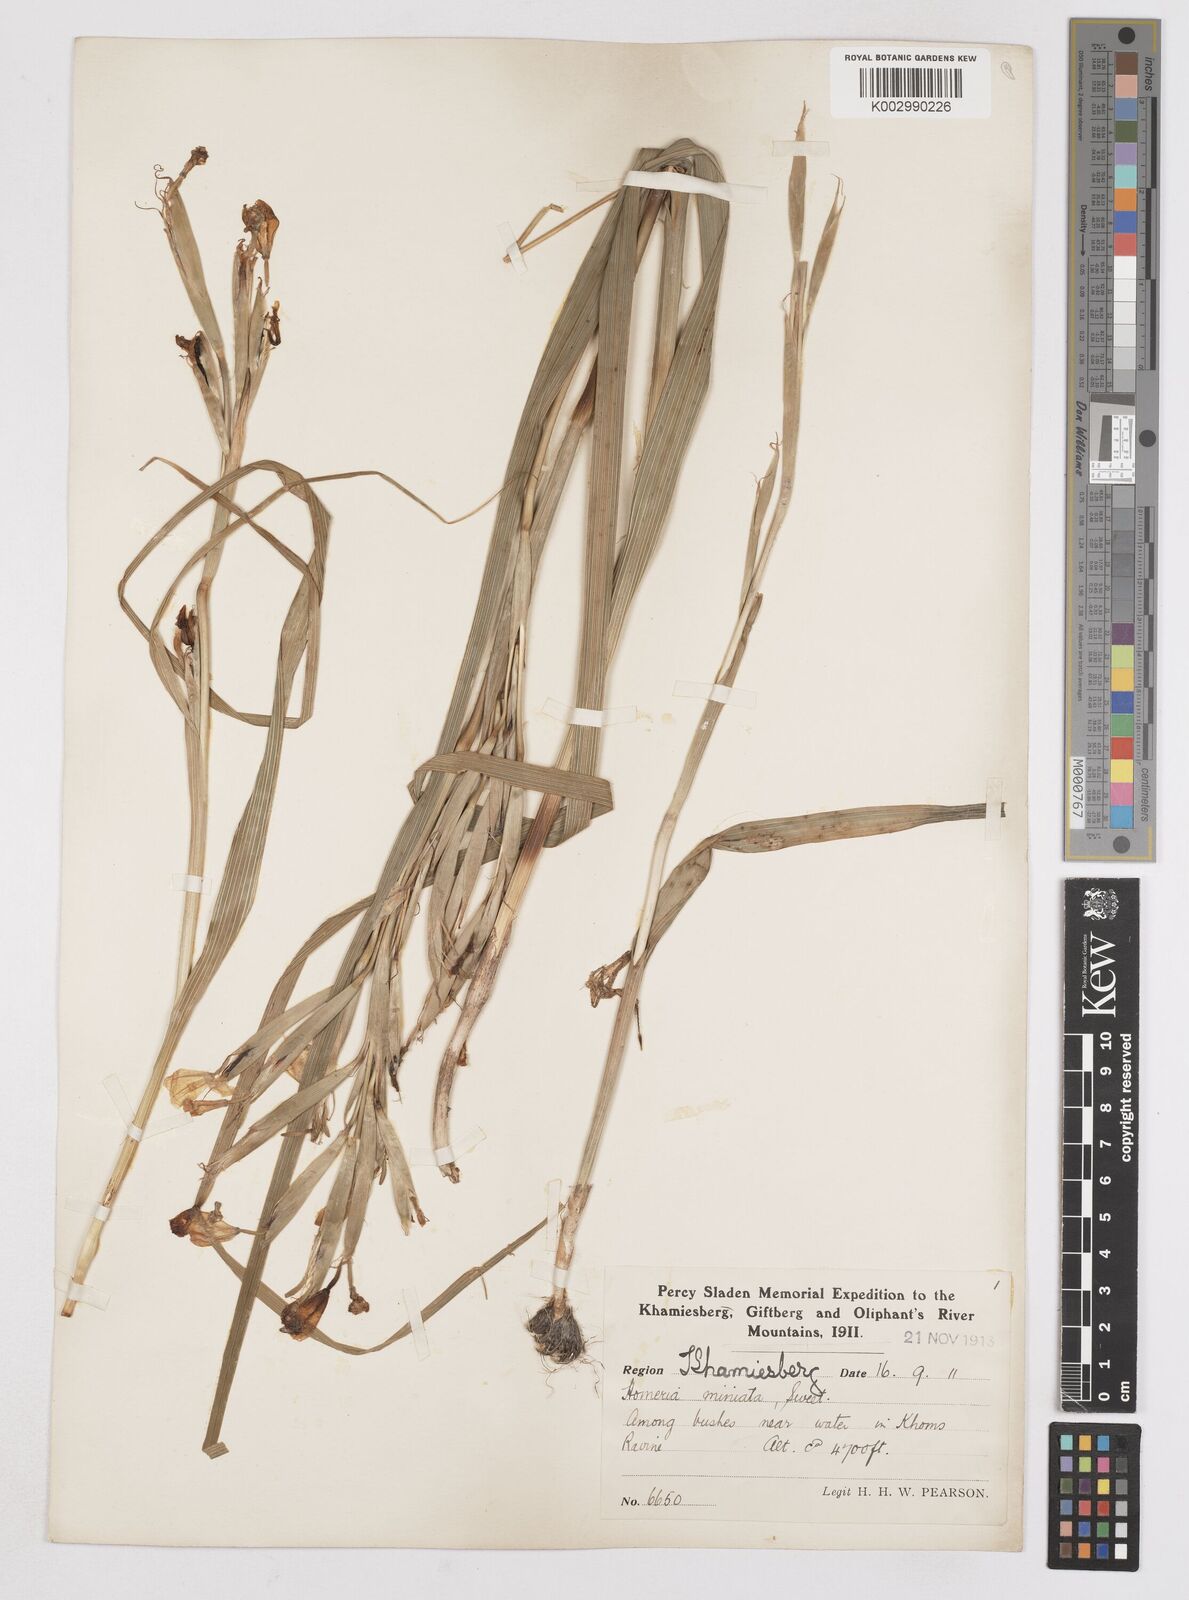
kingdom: Plantae
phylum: Tracheophyta
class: Liliopsida
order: Asparagales
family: Iridaceae
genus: Moraea
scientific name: Moraea miniata
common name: Two-leaf cape-tulip
